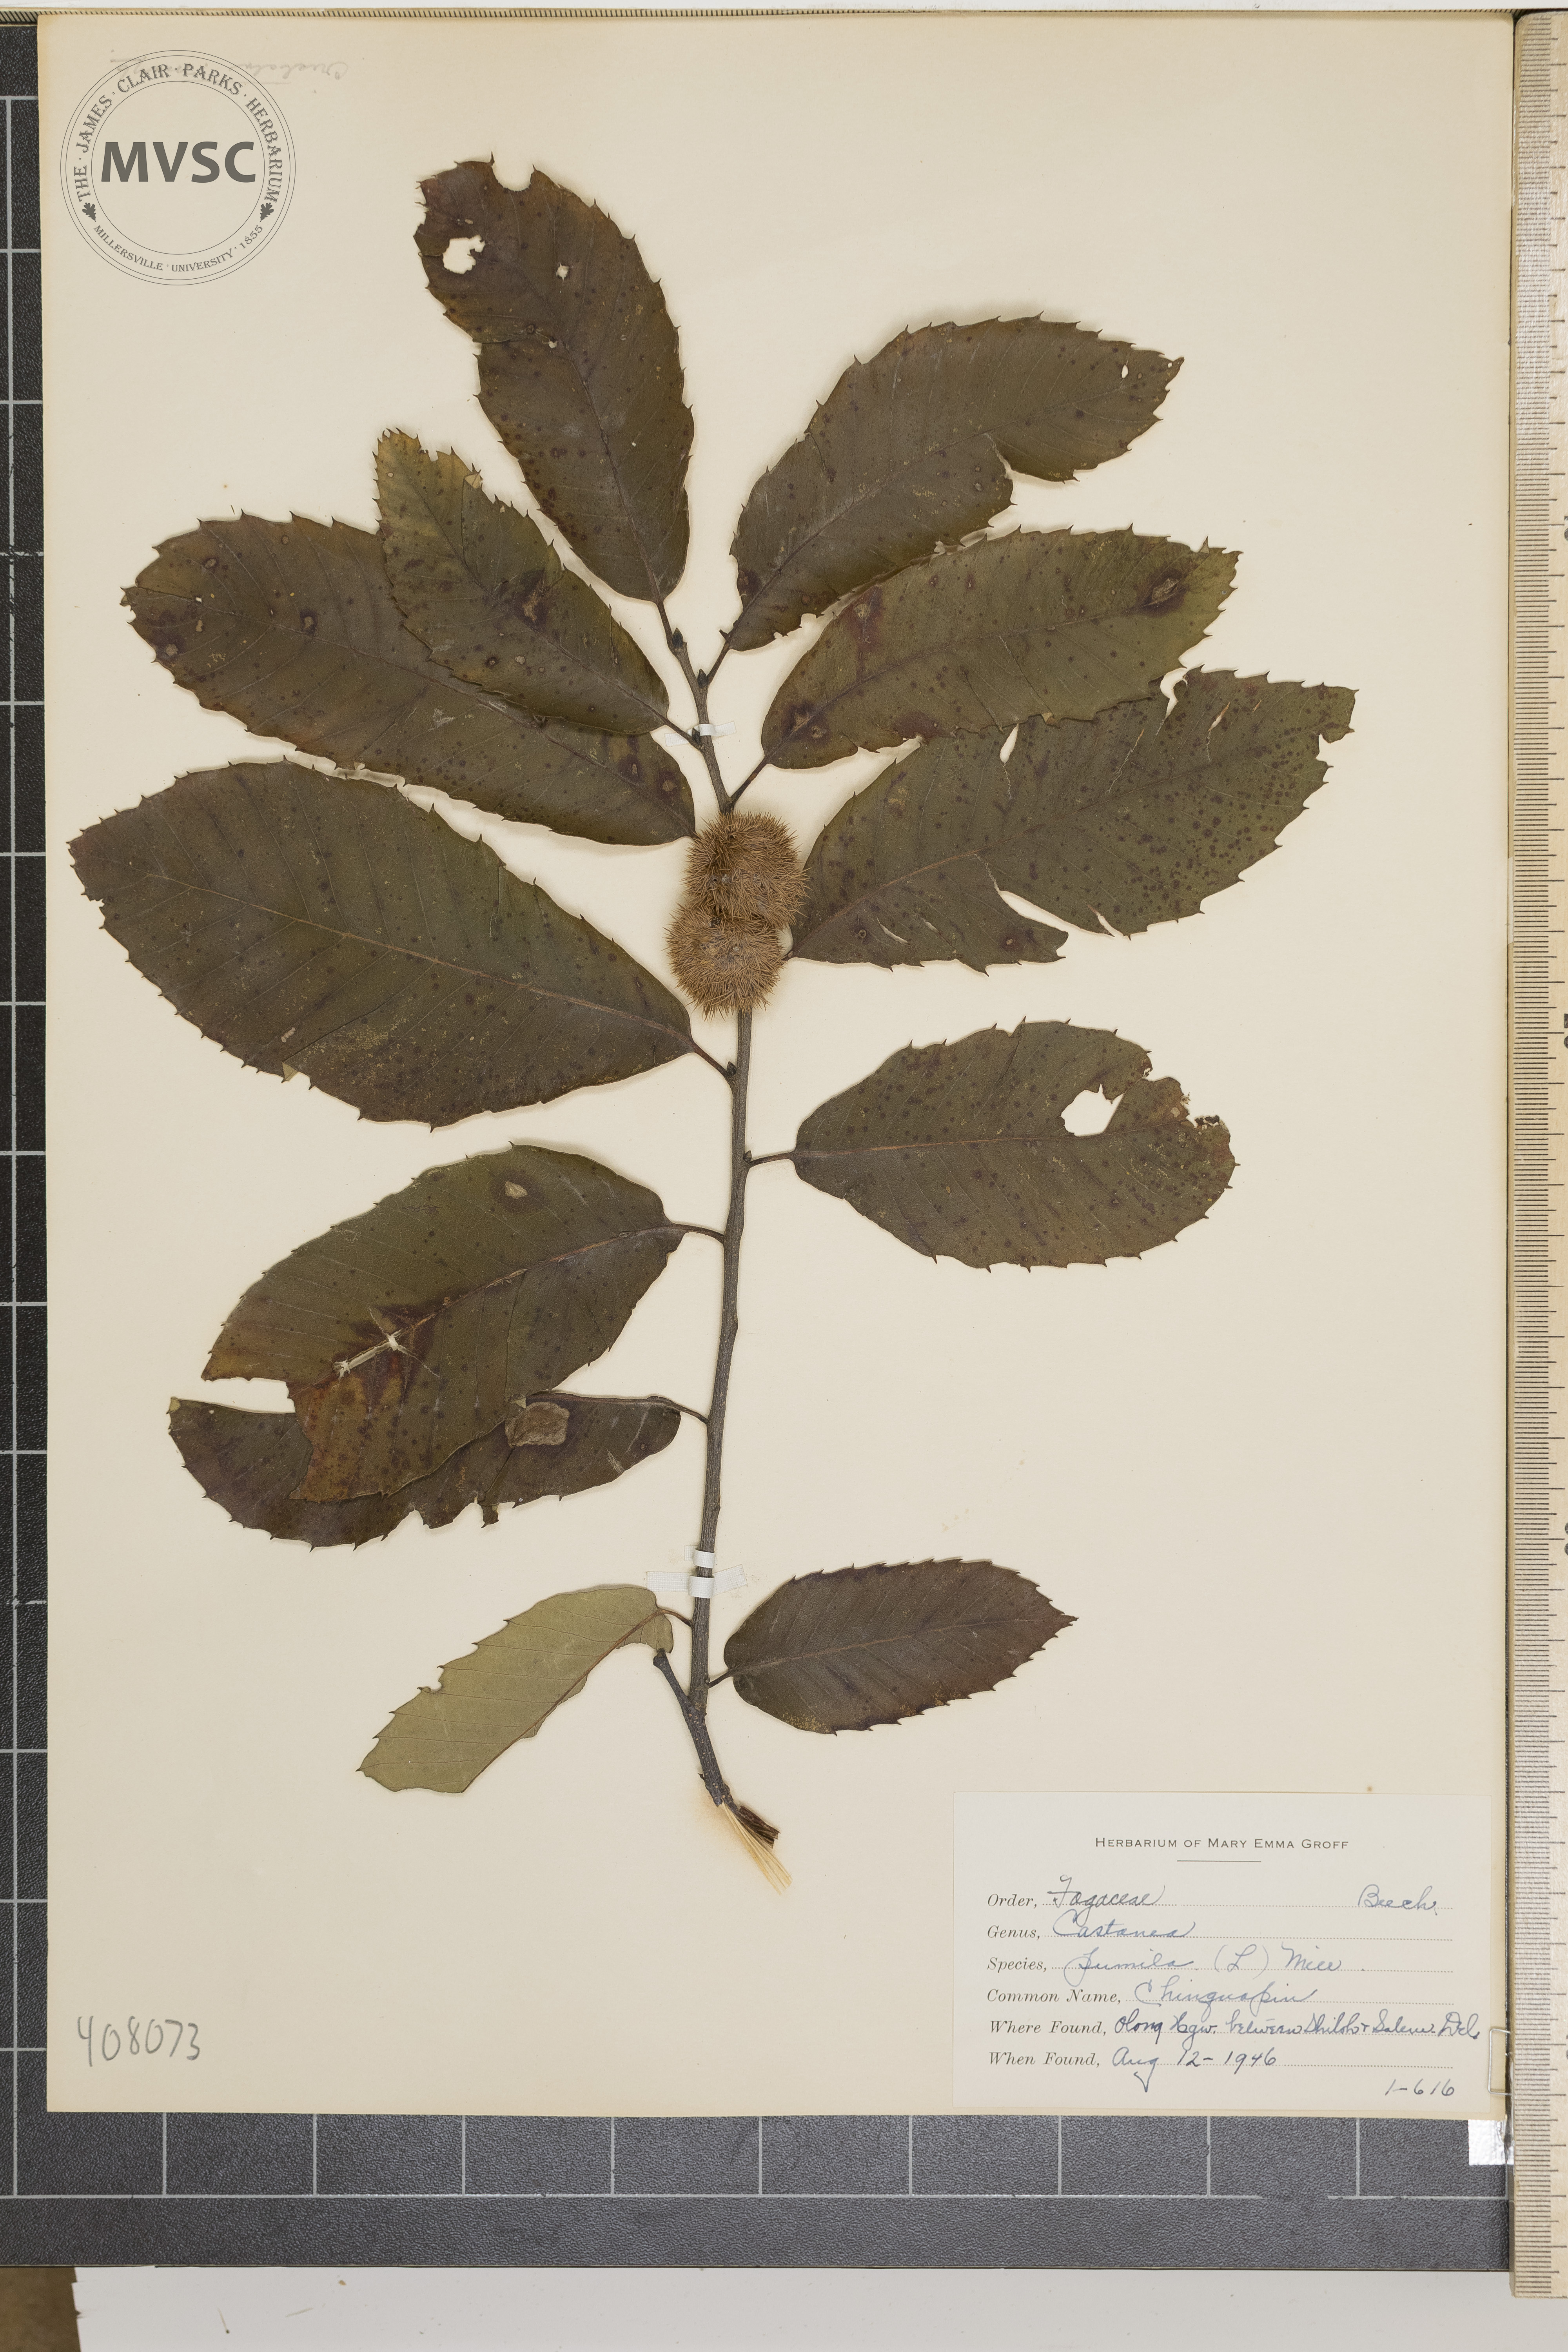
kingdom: Plantae
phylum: Tracheophyta
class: Magnoliopsida
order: Fagales
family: Fagaceae
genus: Castanea
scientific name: Castanea pumila
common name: Chinquapin
